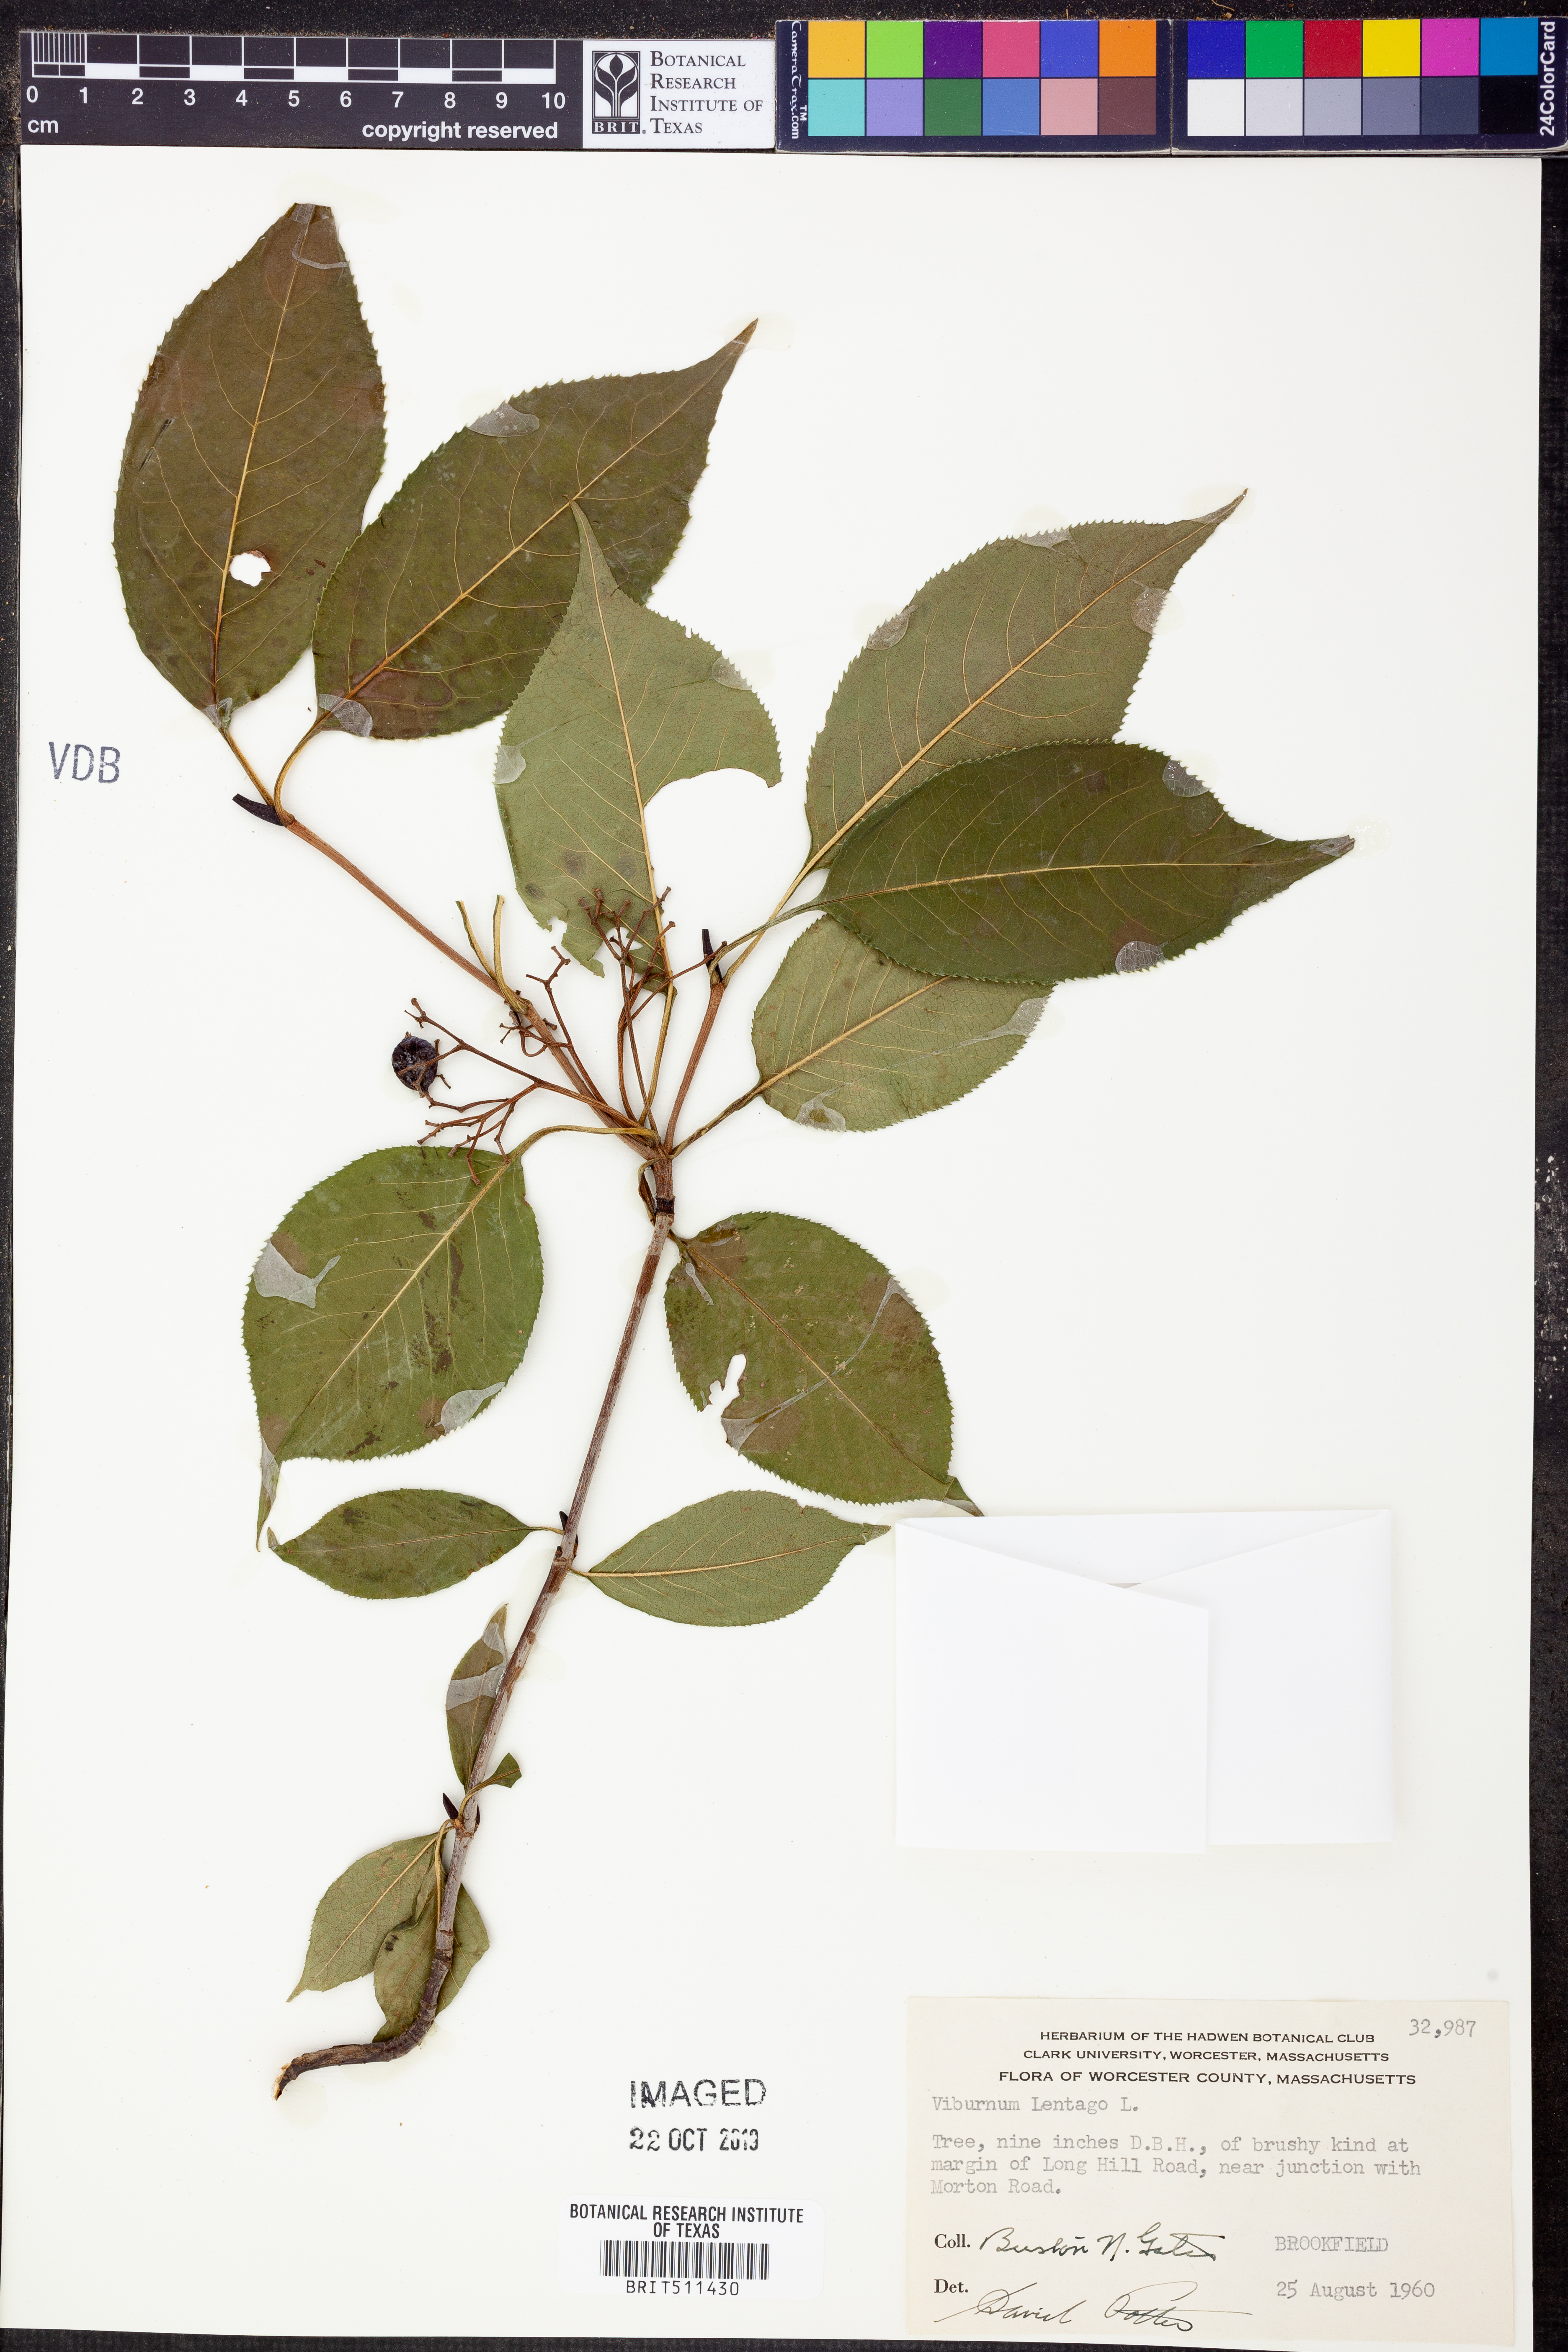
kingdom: Plantae
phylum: Tracheophyta
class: Magnoliopsida
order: Dipsacales
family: Viburnaceae
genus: Viburnum
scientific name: Viburnum lentago
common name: Black haw
